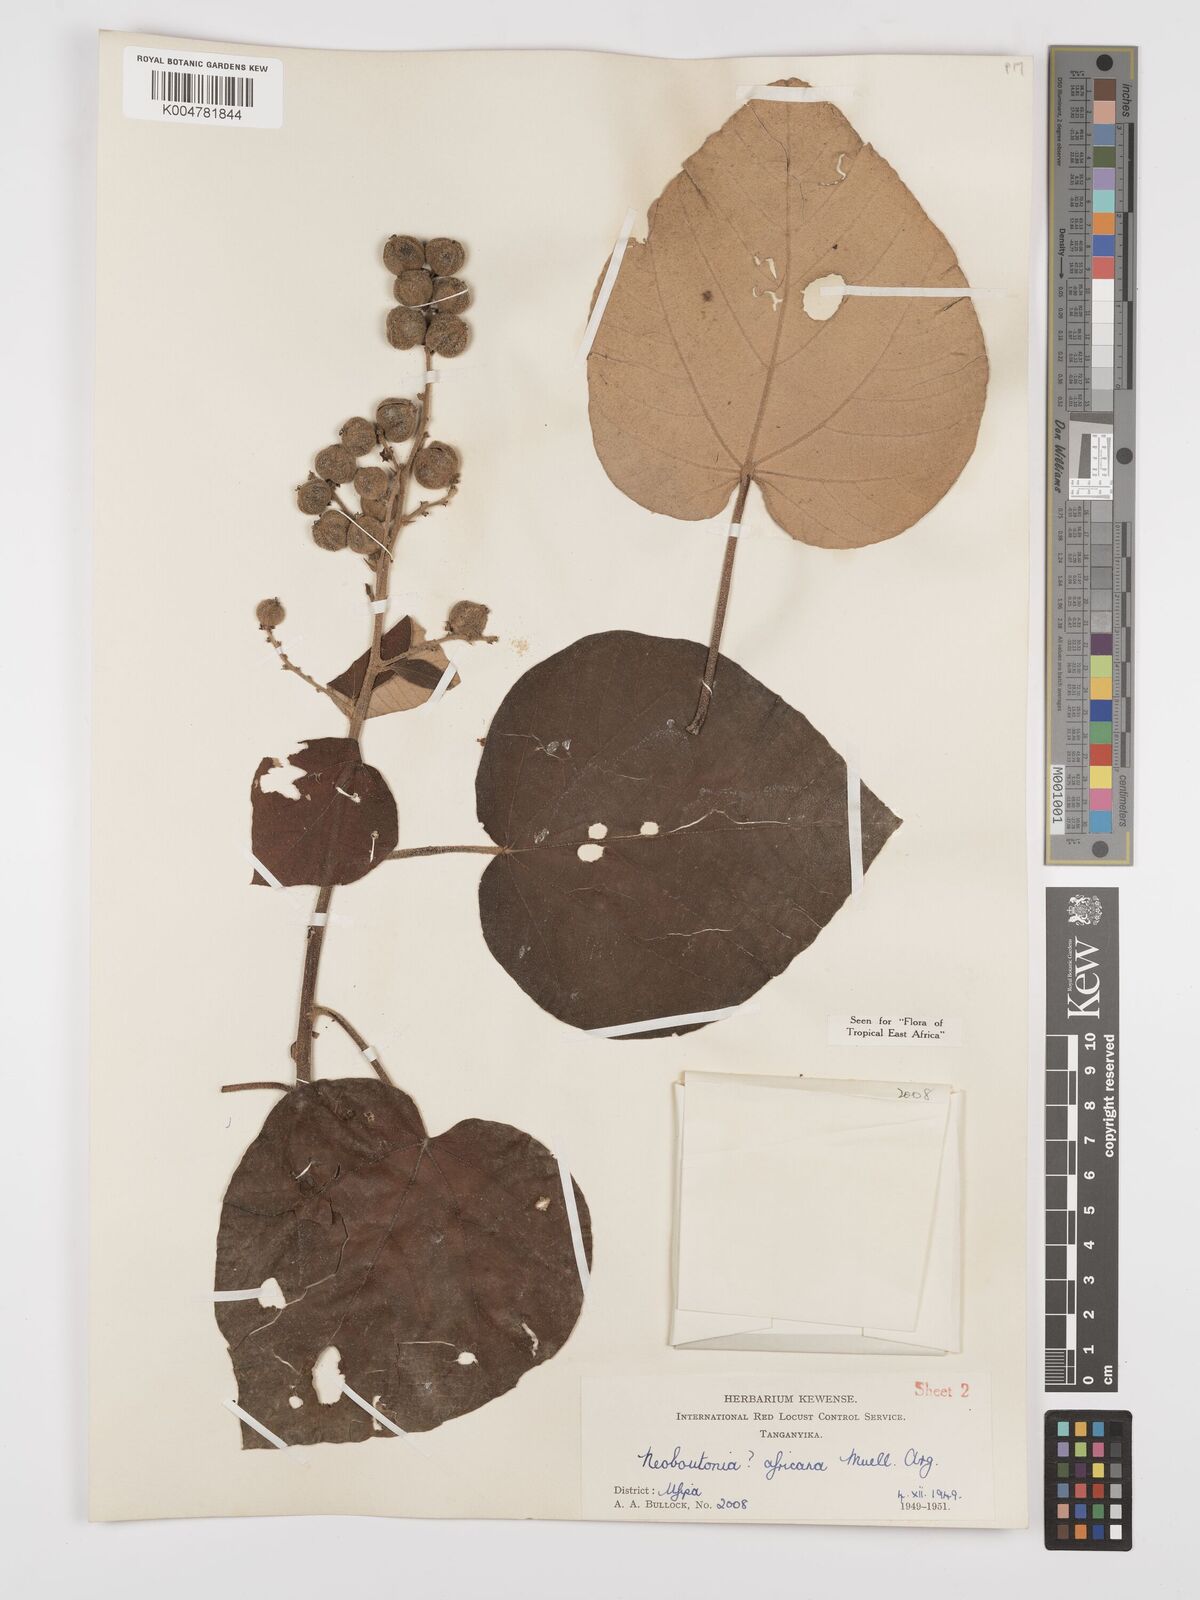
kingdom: Plantae
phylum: Tracheophyta
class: Magnoliopsida
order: Malpighiales
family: Euphorbiaceae
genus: Neoboutonia
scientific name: Neoboutonia melleri
